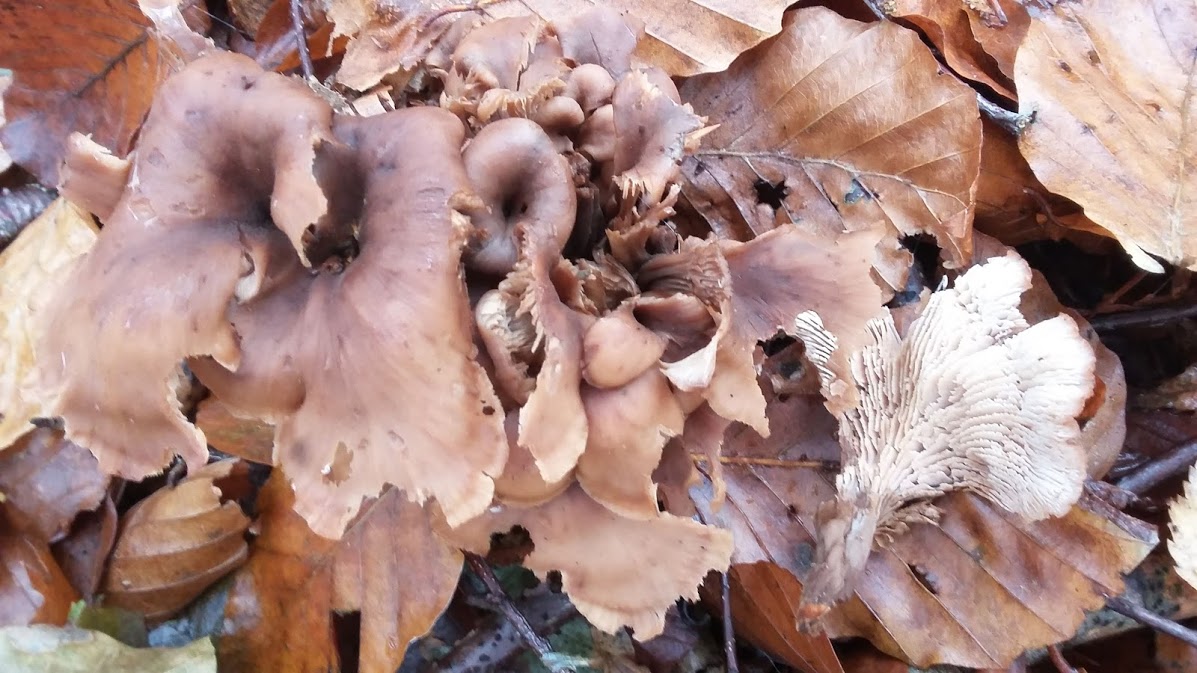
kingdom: Fungi
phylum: Basidiomycota
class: Agaricomycetes
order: Russulales
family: Auriscalpiaceae
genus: Lentinellus
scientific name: Lentinellus cochleatus
